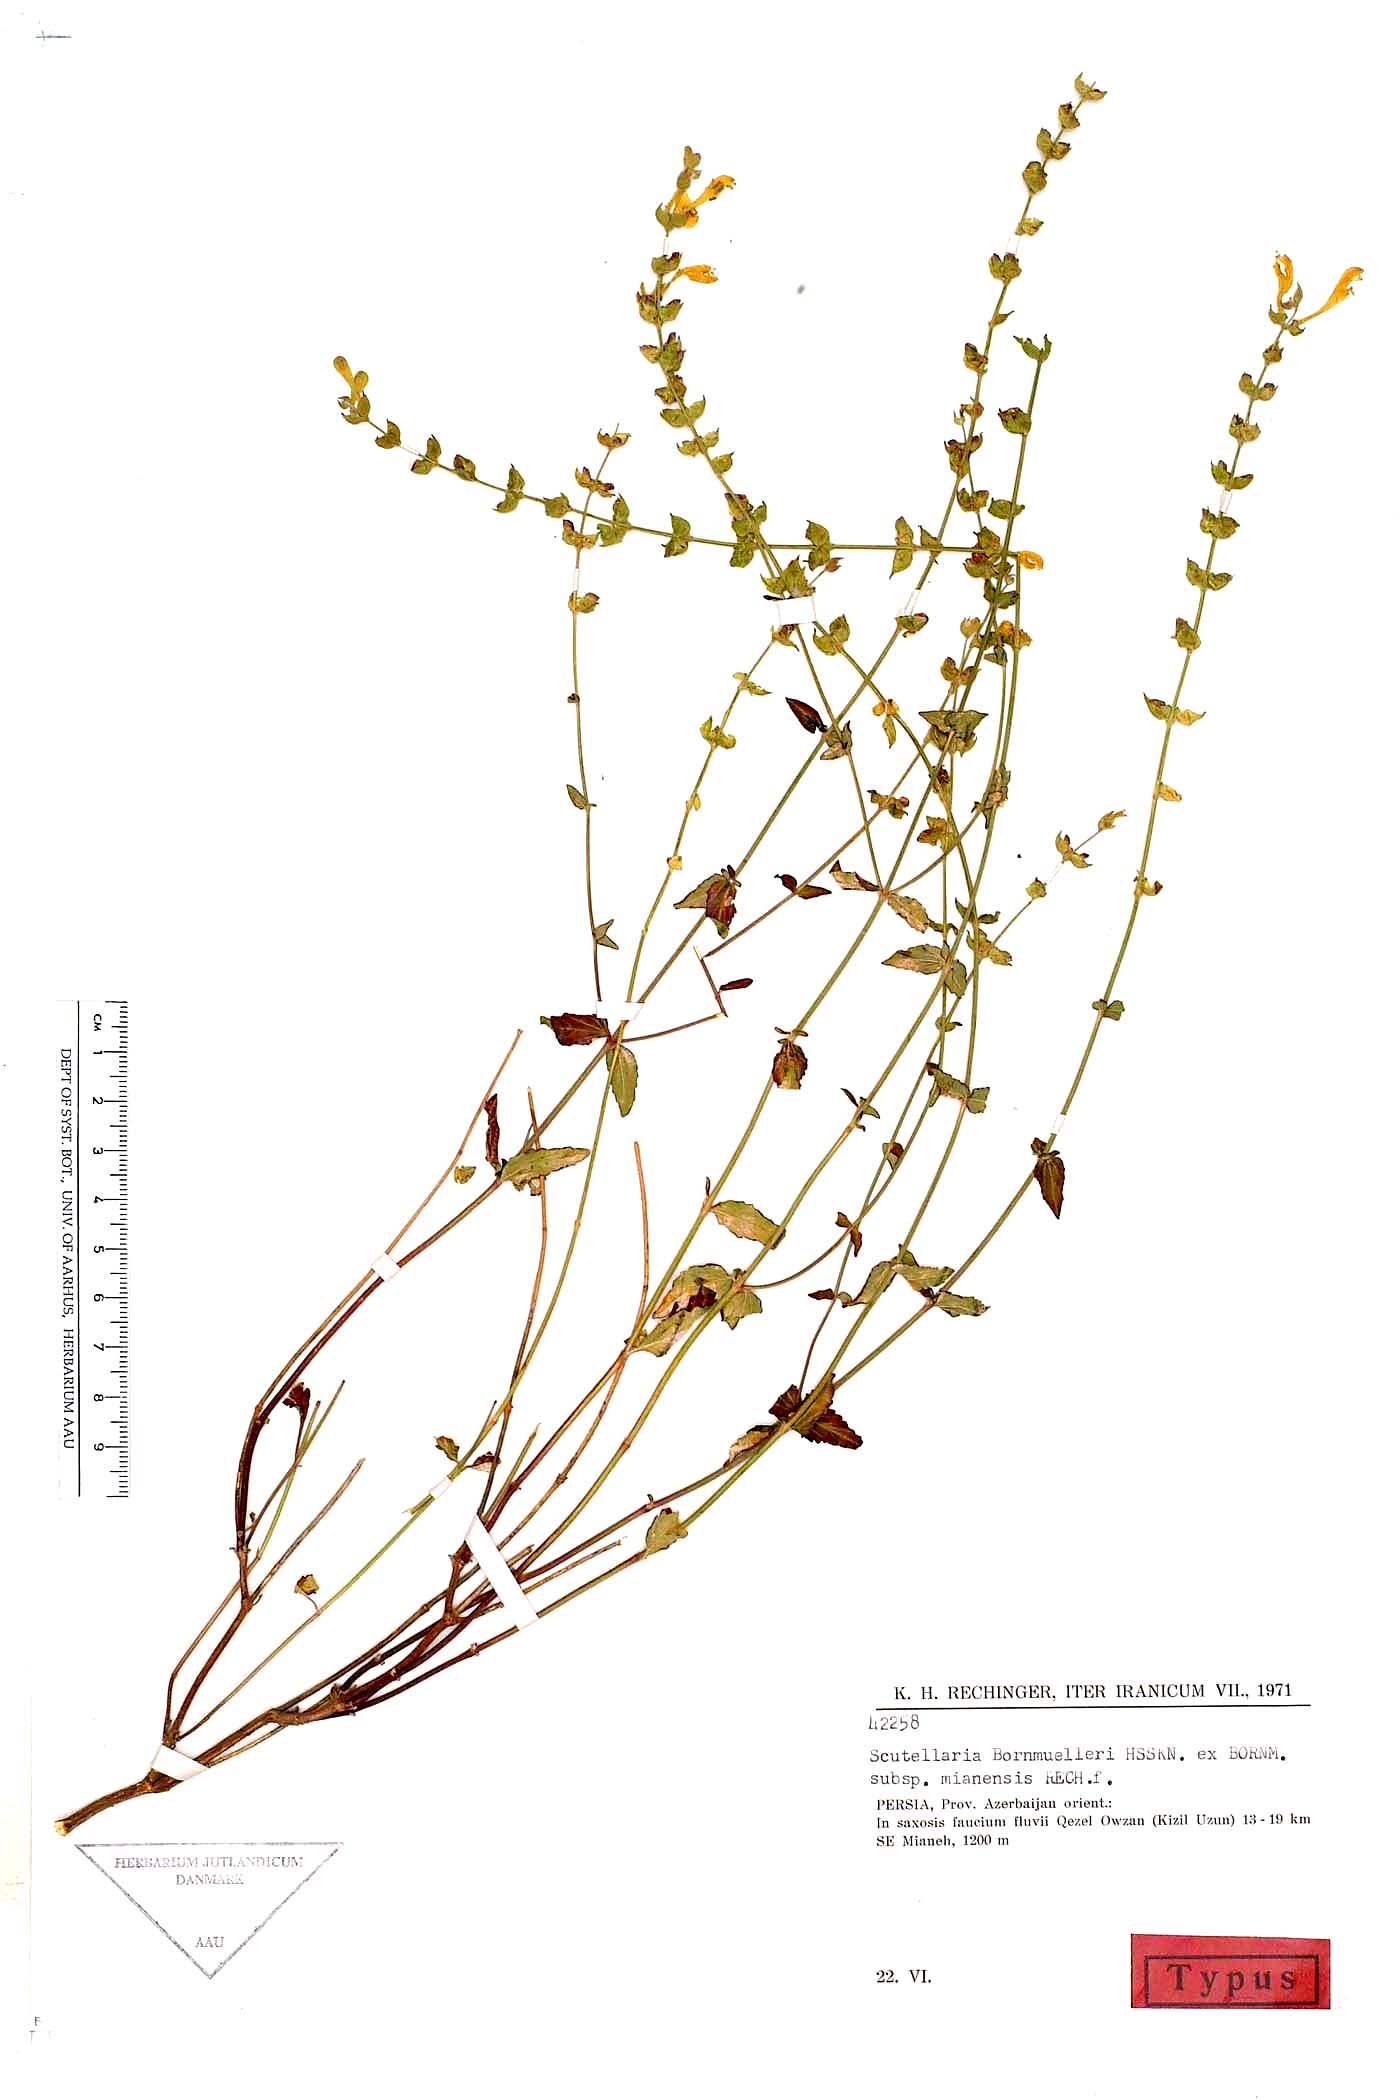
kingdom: Plantae
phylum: Tracheophyta
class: Magnoliopsida
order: Lamiales
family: Lamiaceae
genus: Scutellaria
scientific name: Scutellaria bornmuelleri
